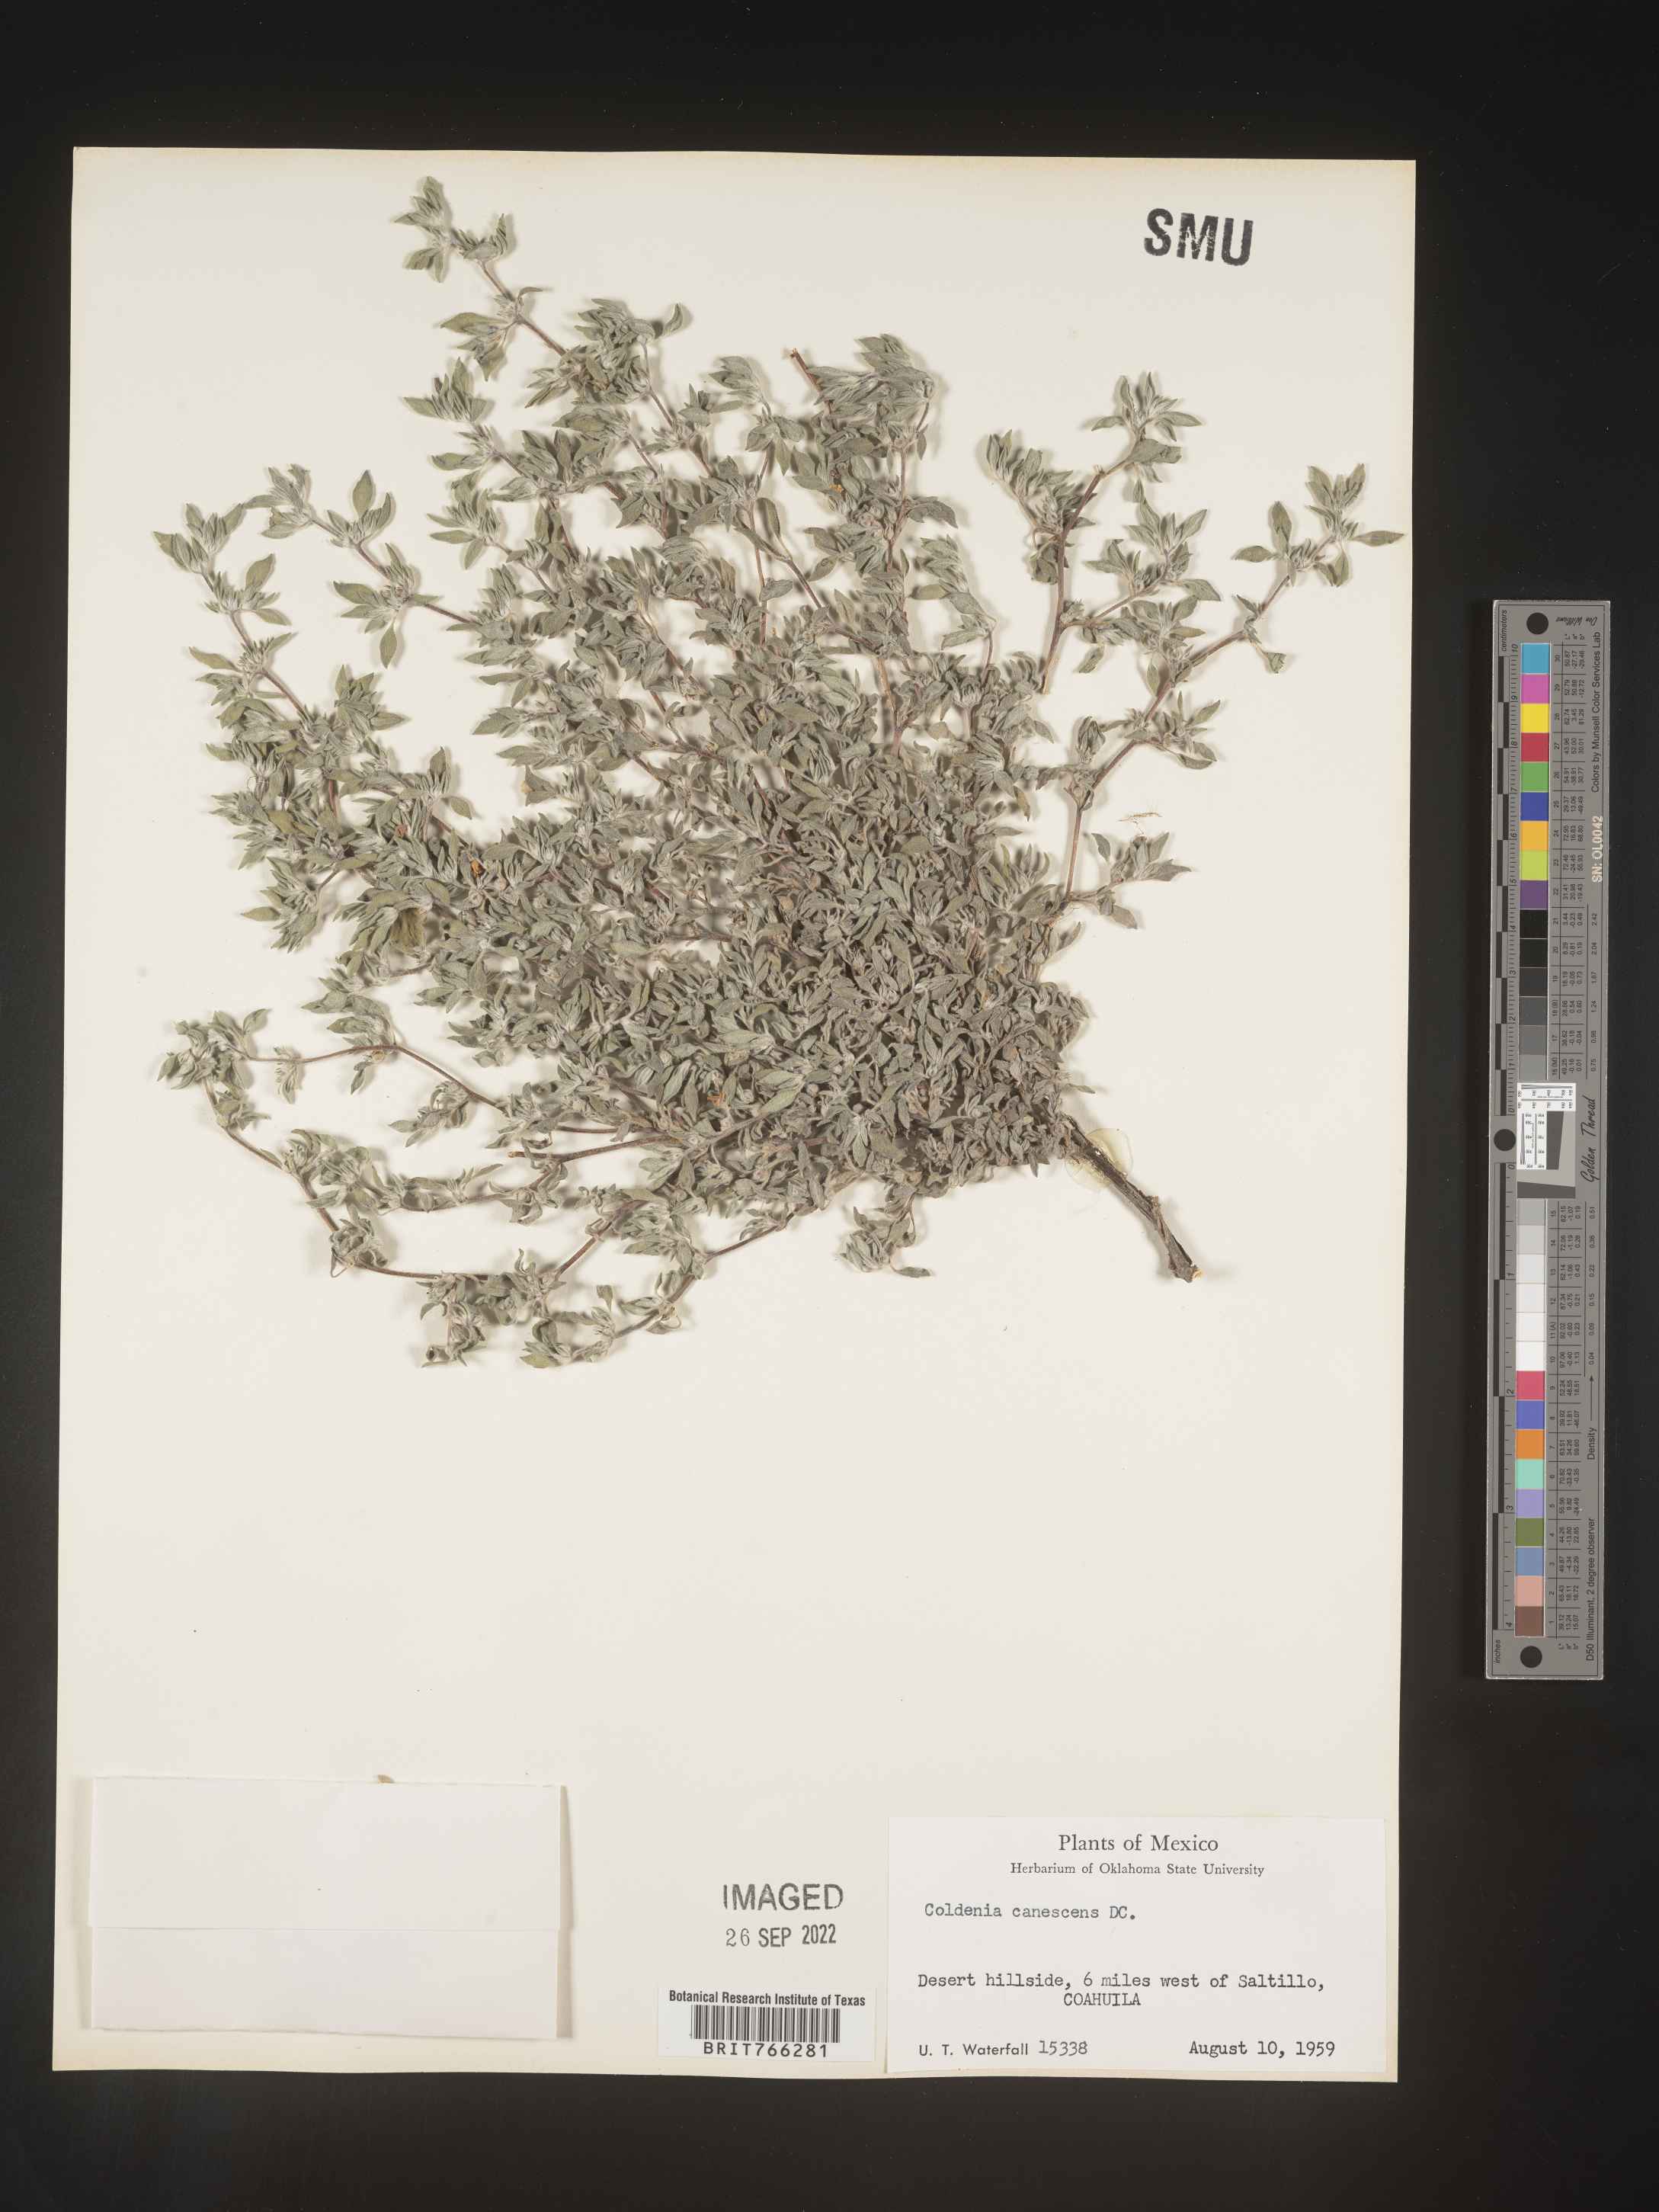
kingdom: Plantae
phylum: Tracheophyta
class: Magnoliopsida
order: Boraginales
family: Coldeniaceae
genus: Coldenia
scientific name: Coldenia
